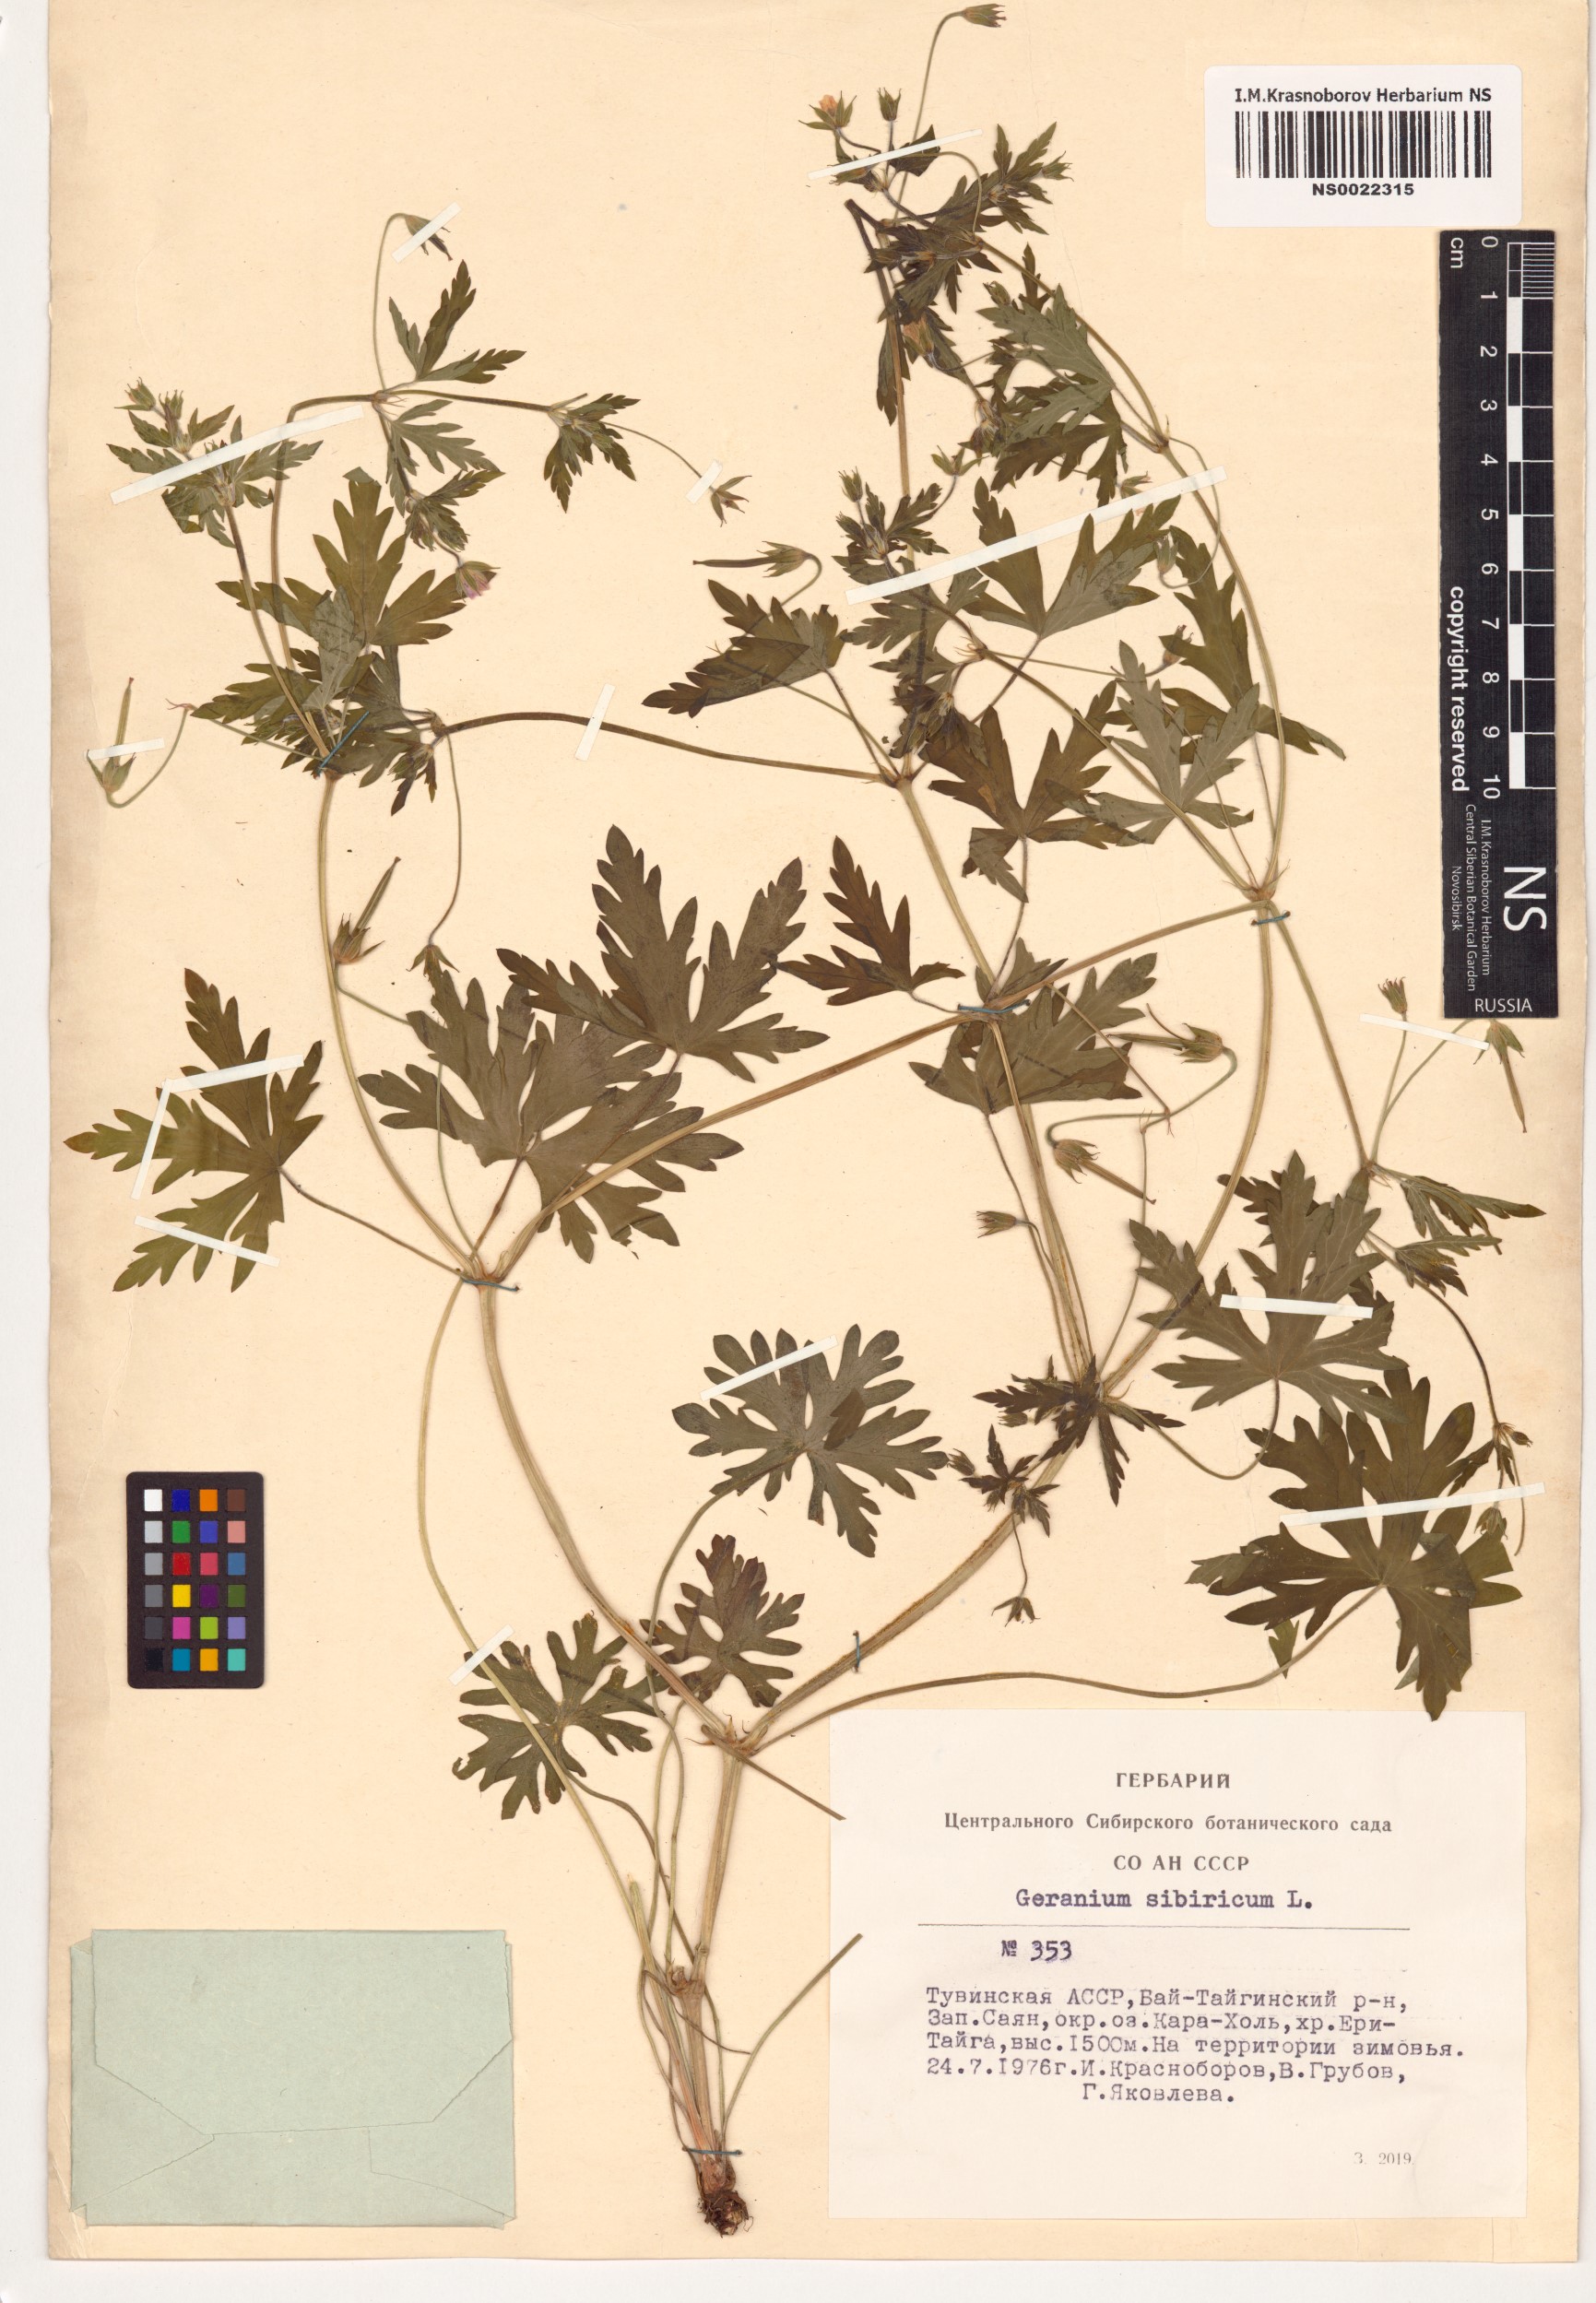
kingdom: Plantae
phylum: Tracheophyta
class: Magnoliopsida
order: Geraniales
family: Geraniaceae
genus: Geranium
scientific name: Geranium sibiricum
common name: Siberian crane's-bill
